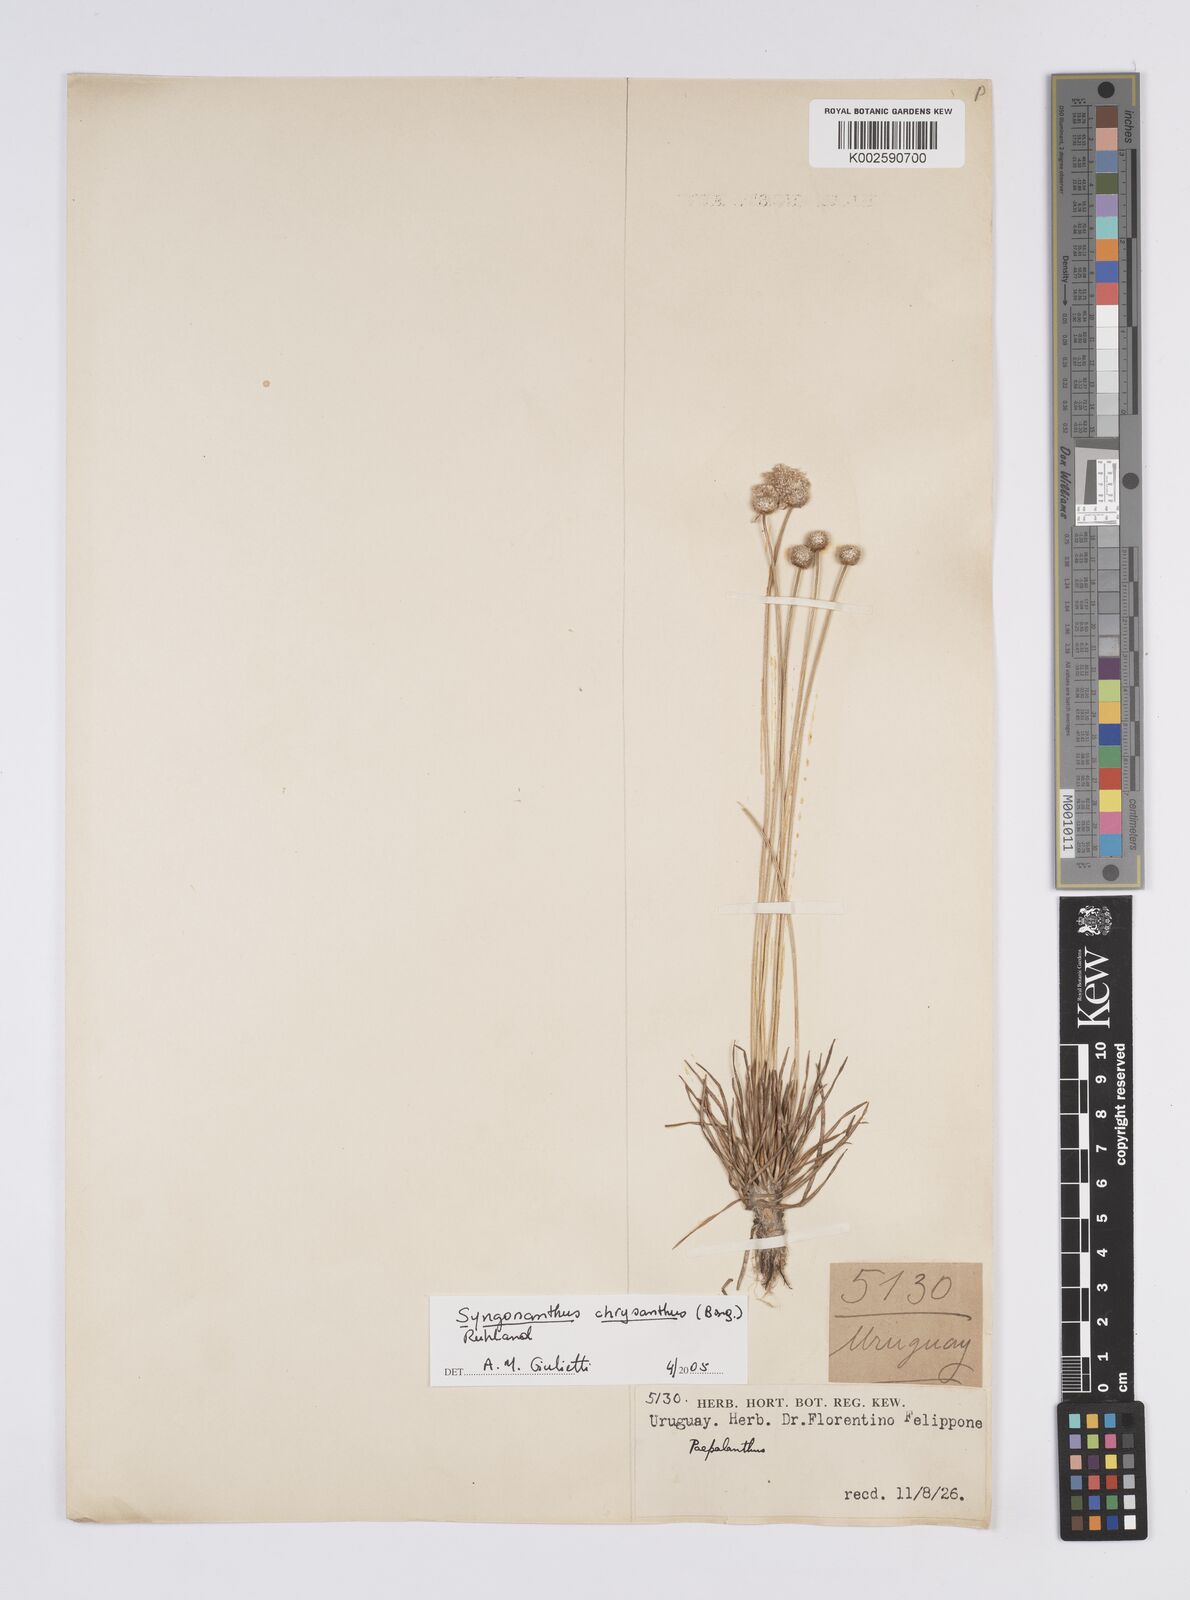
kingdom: Plantae
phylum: Tracheophyta
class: Liliopsida
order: Poales
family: Eriocaulaceae
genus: Syngonanthus
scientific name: Syngonanthus chrysanthus
